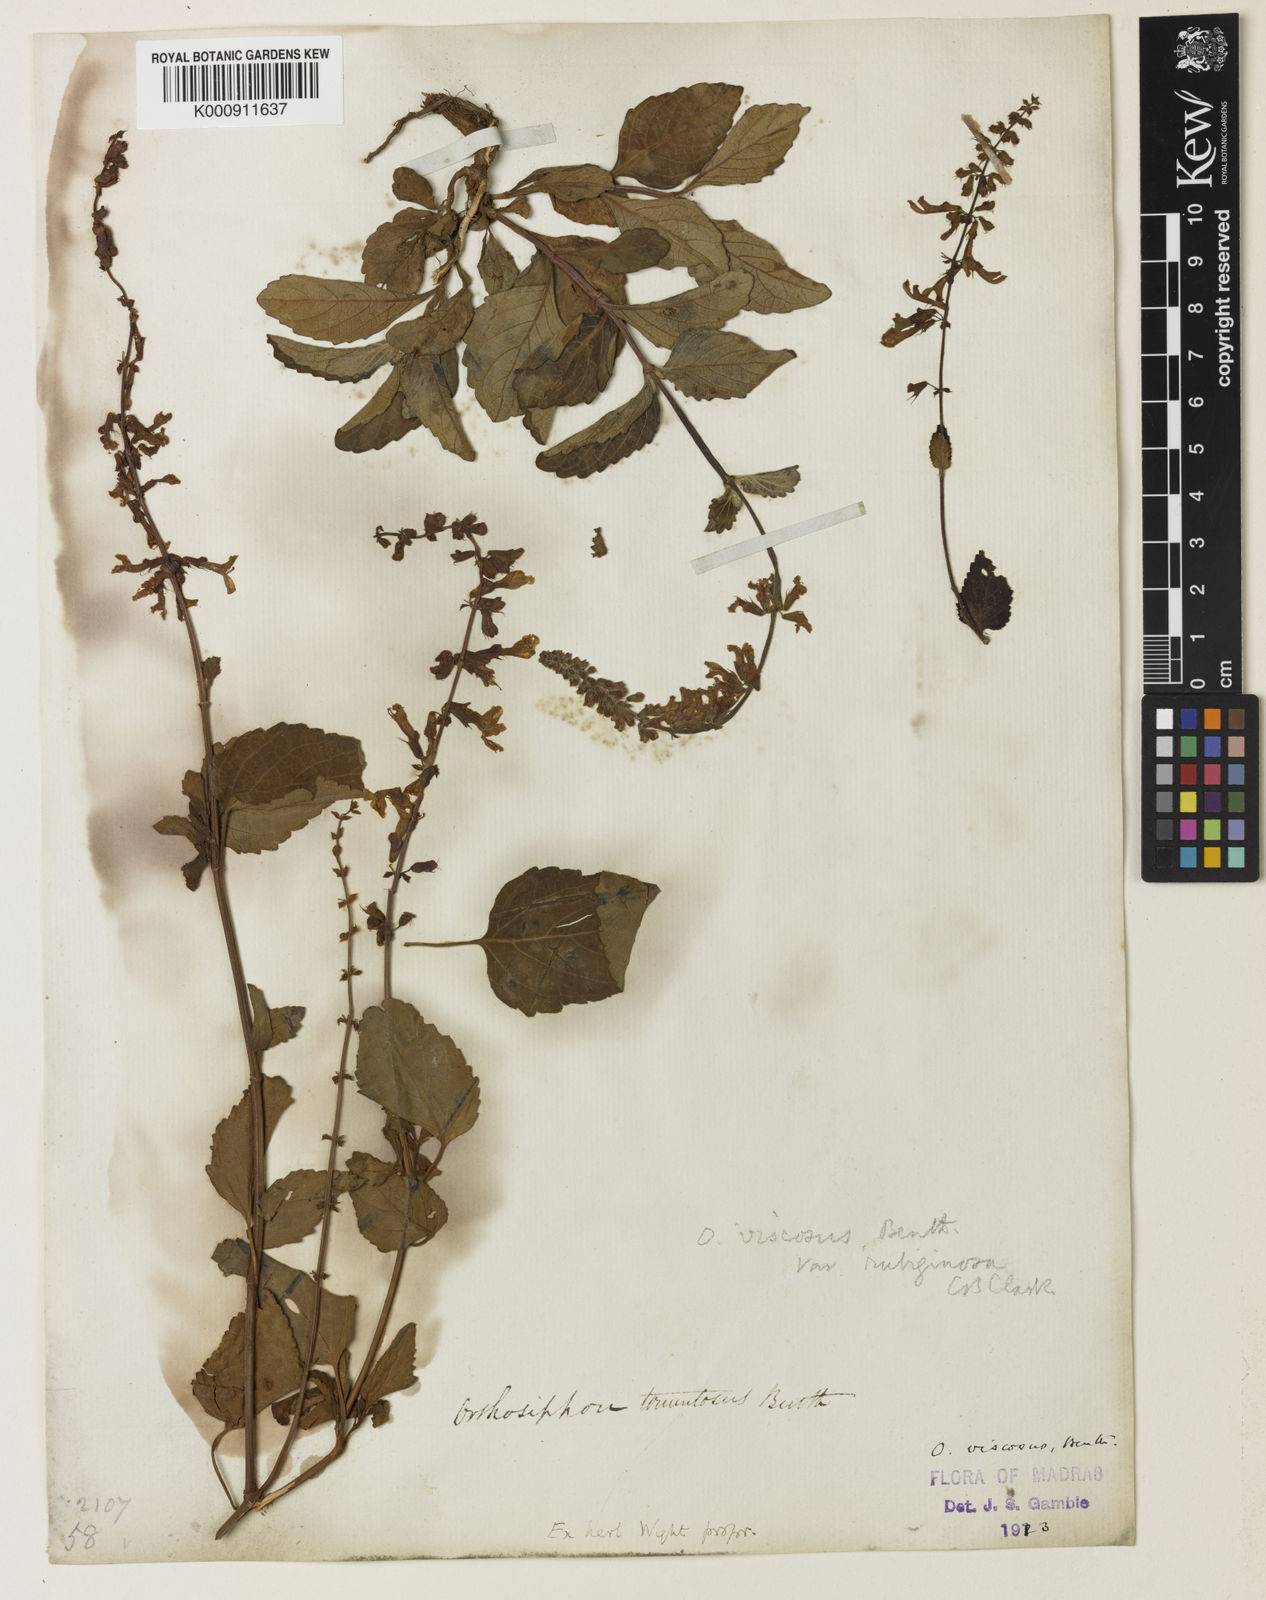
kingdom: Plantae
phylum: Tracheophyta
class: Magnoliopsida
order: Lamiales
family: Lamiaceae
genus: Orthosiphon
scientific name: Orthosiphon thymiflorus
